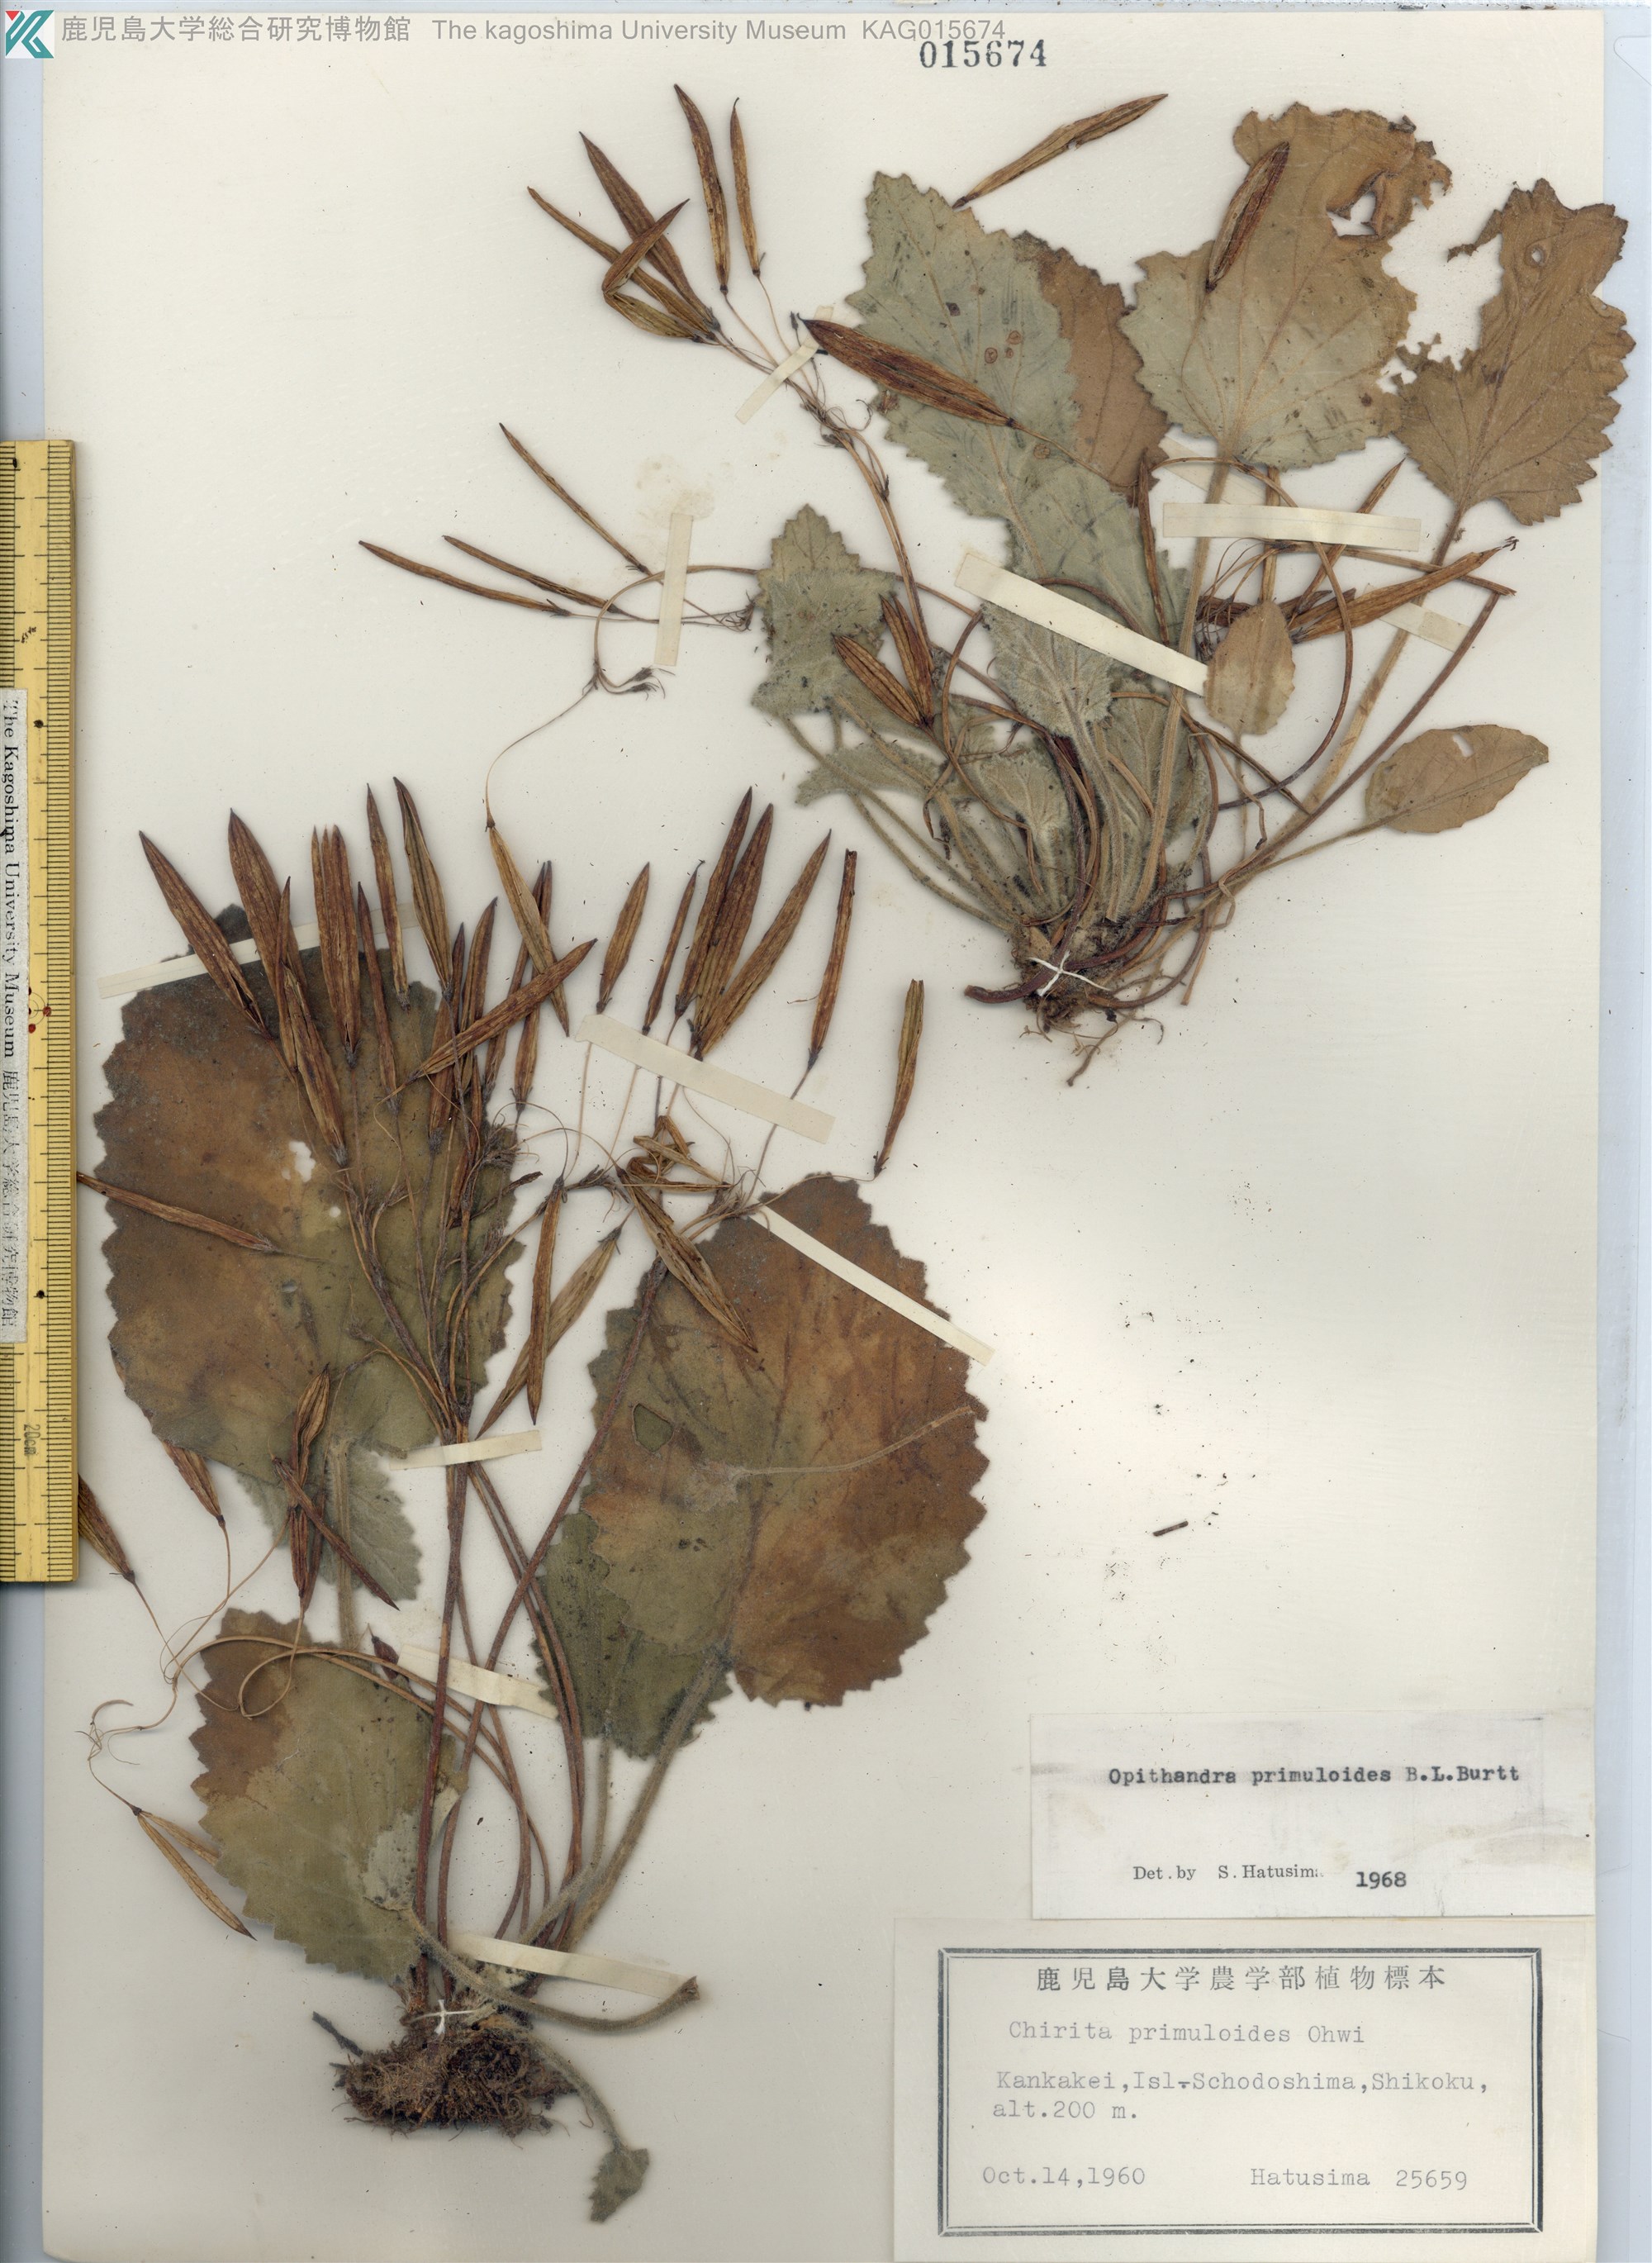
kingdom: Plantae
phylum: Tracheophyta
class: Magnoliopsida
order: Lamiales
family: Gesneriaceae
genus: Oreocharis
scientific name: Oreocharis primuloides
